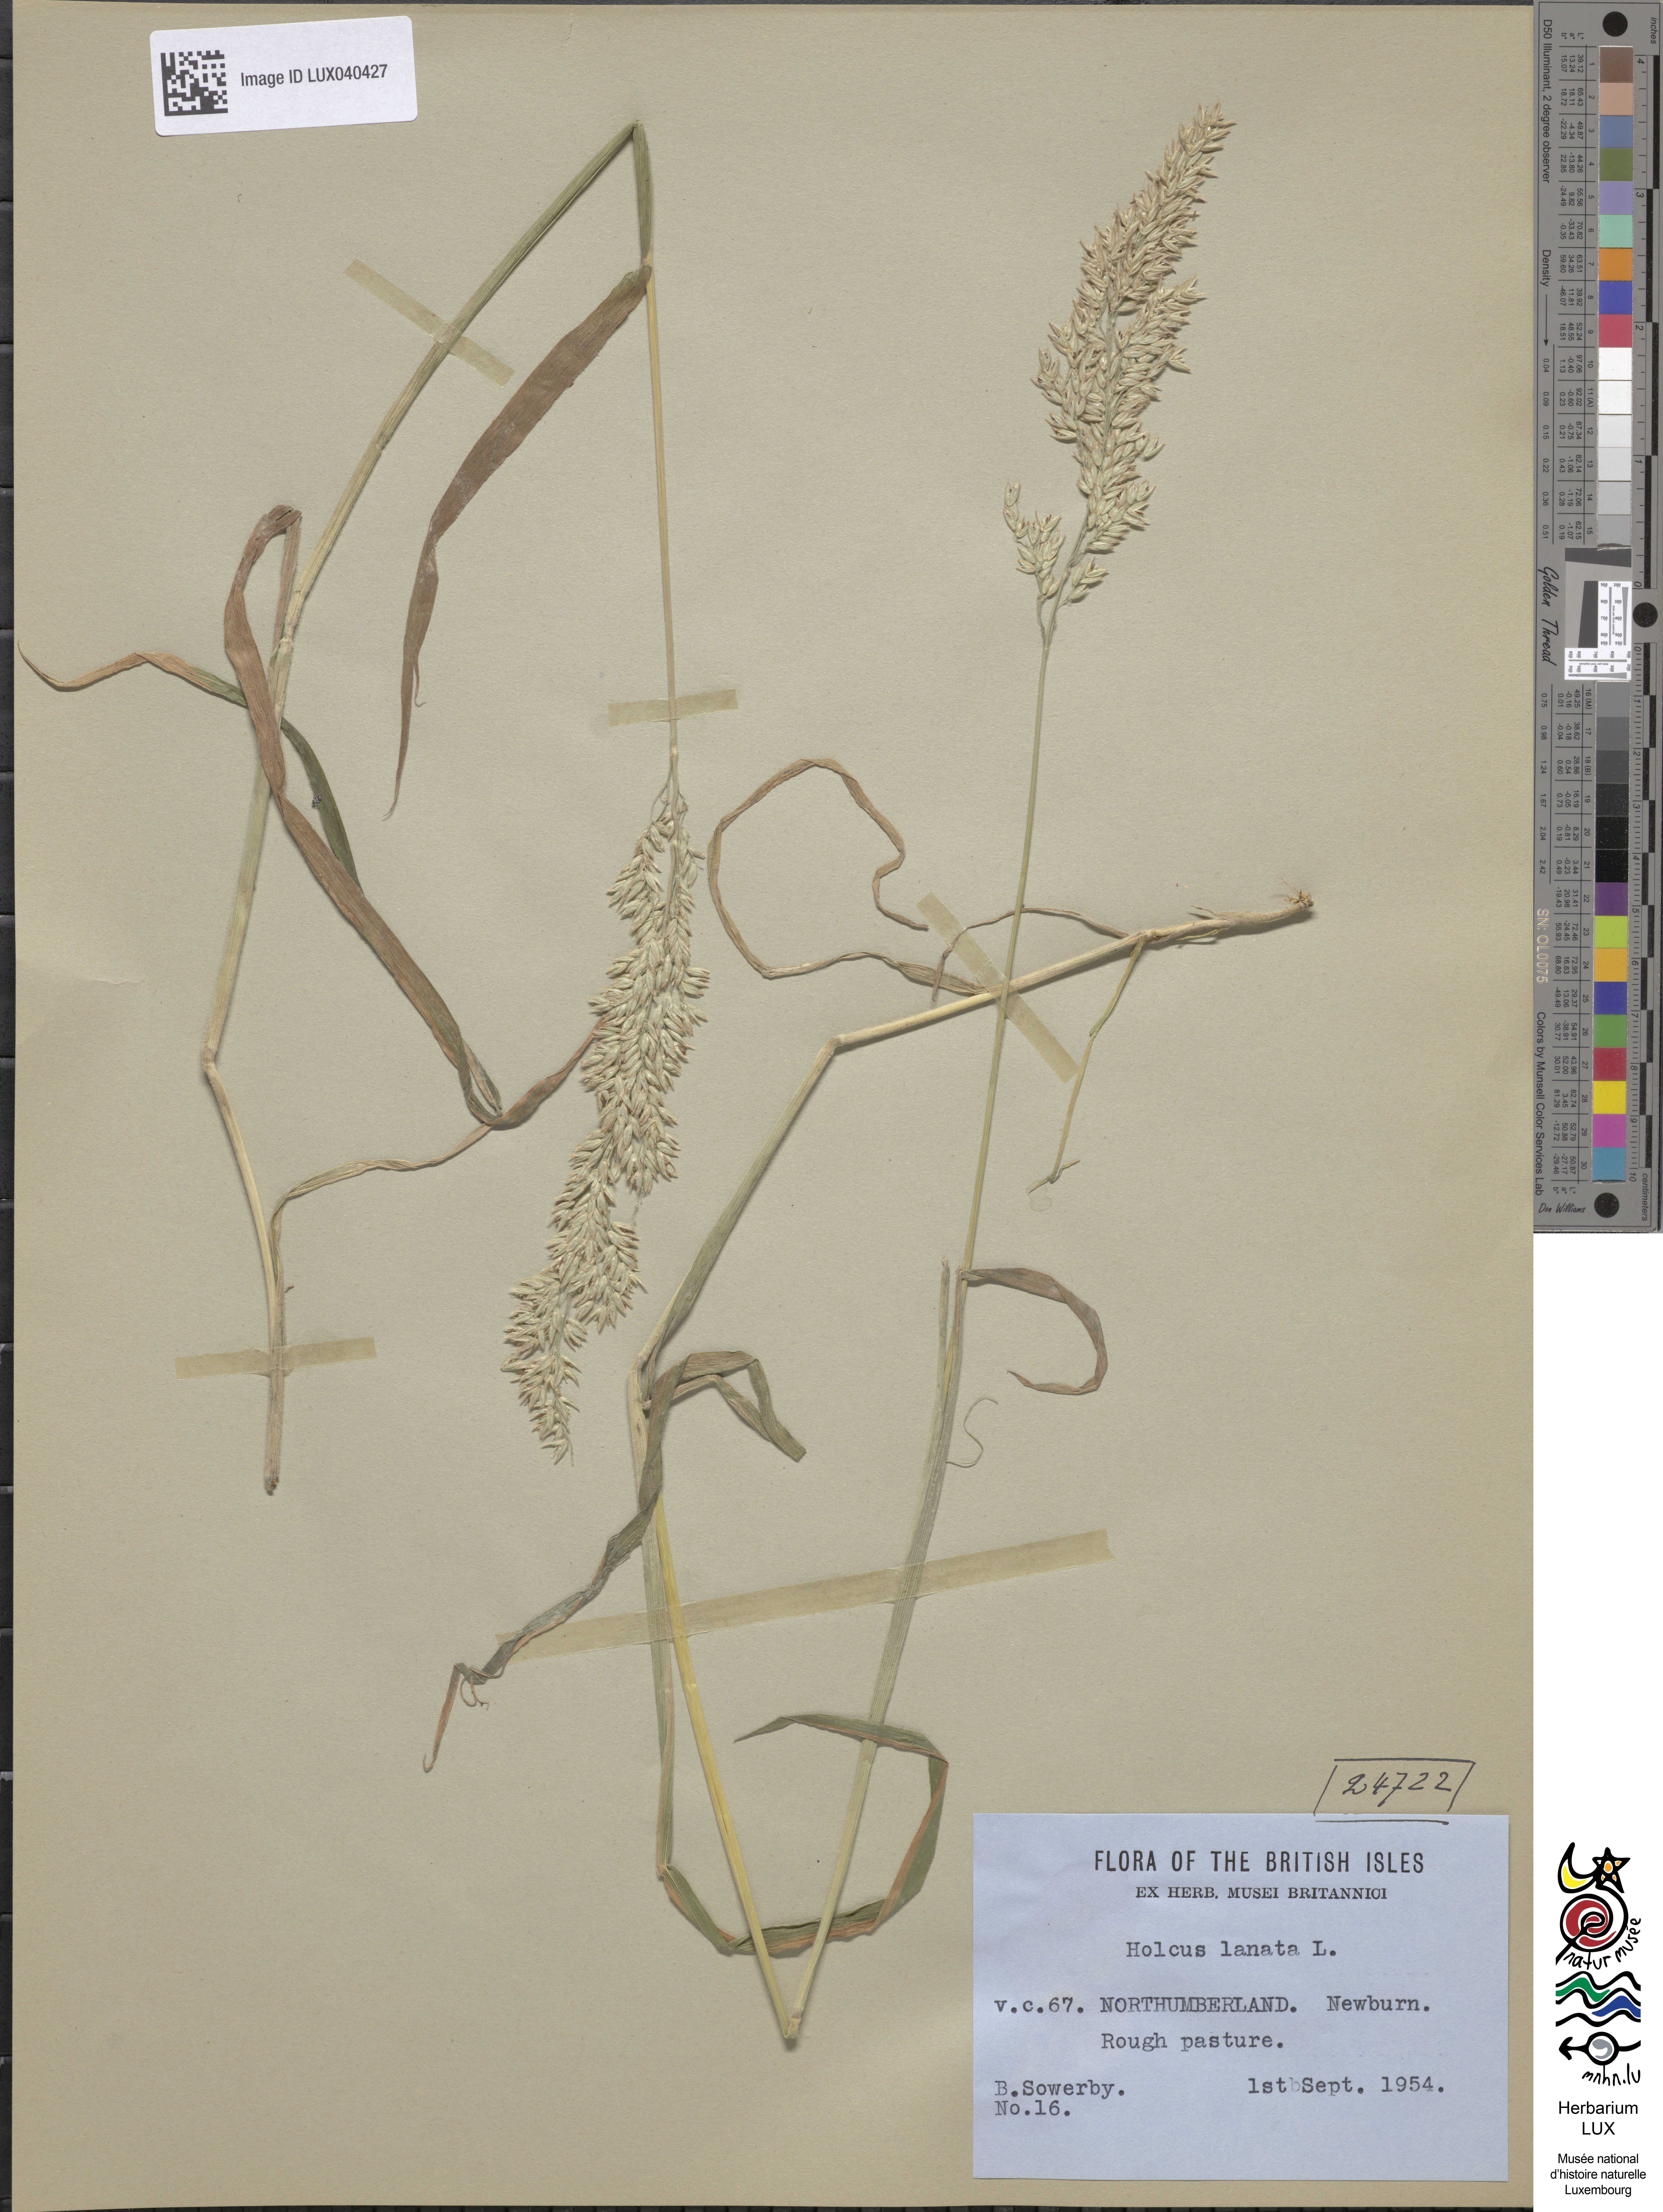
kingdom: Plantae
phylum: Tracheophyta
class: Liliopsida
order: Poales
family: Poaceae
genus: Holcus
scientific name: Holcus lanatus
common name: Yorkshire-fog
